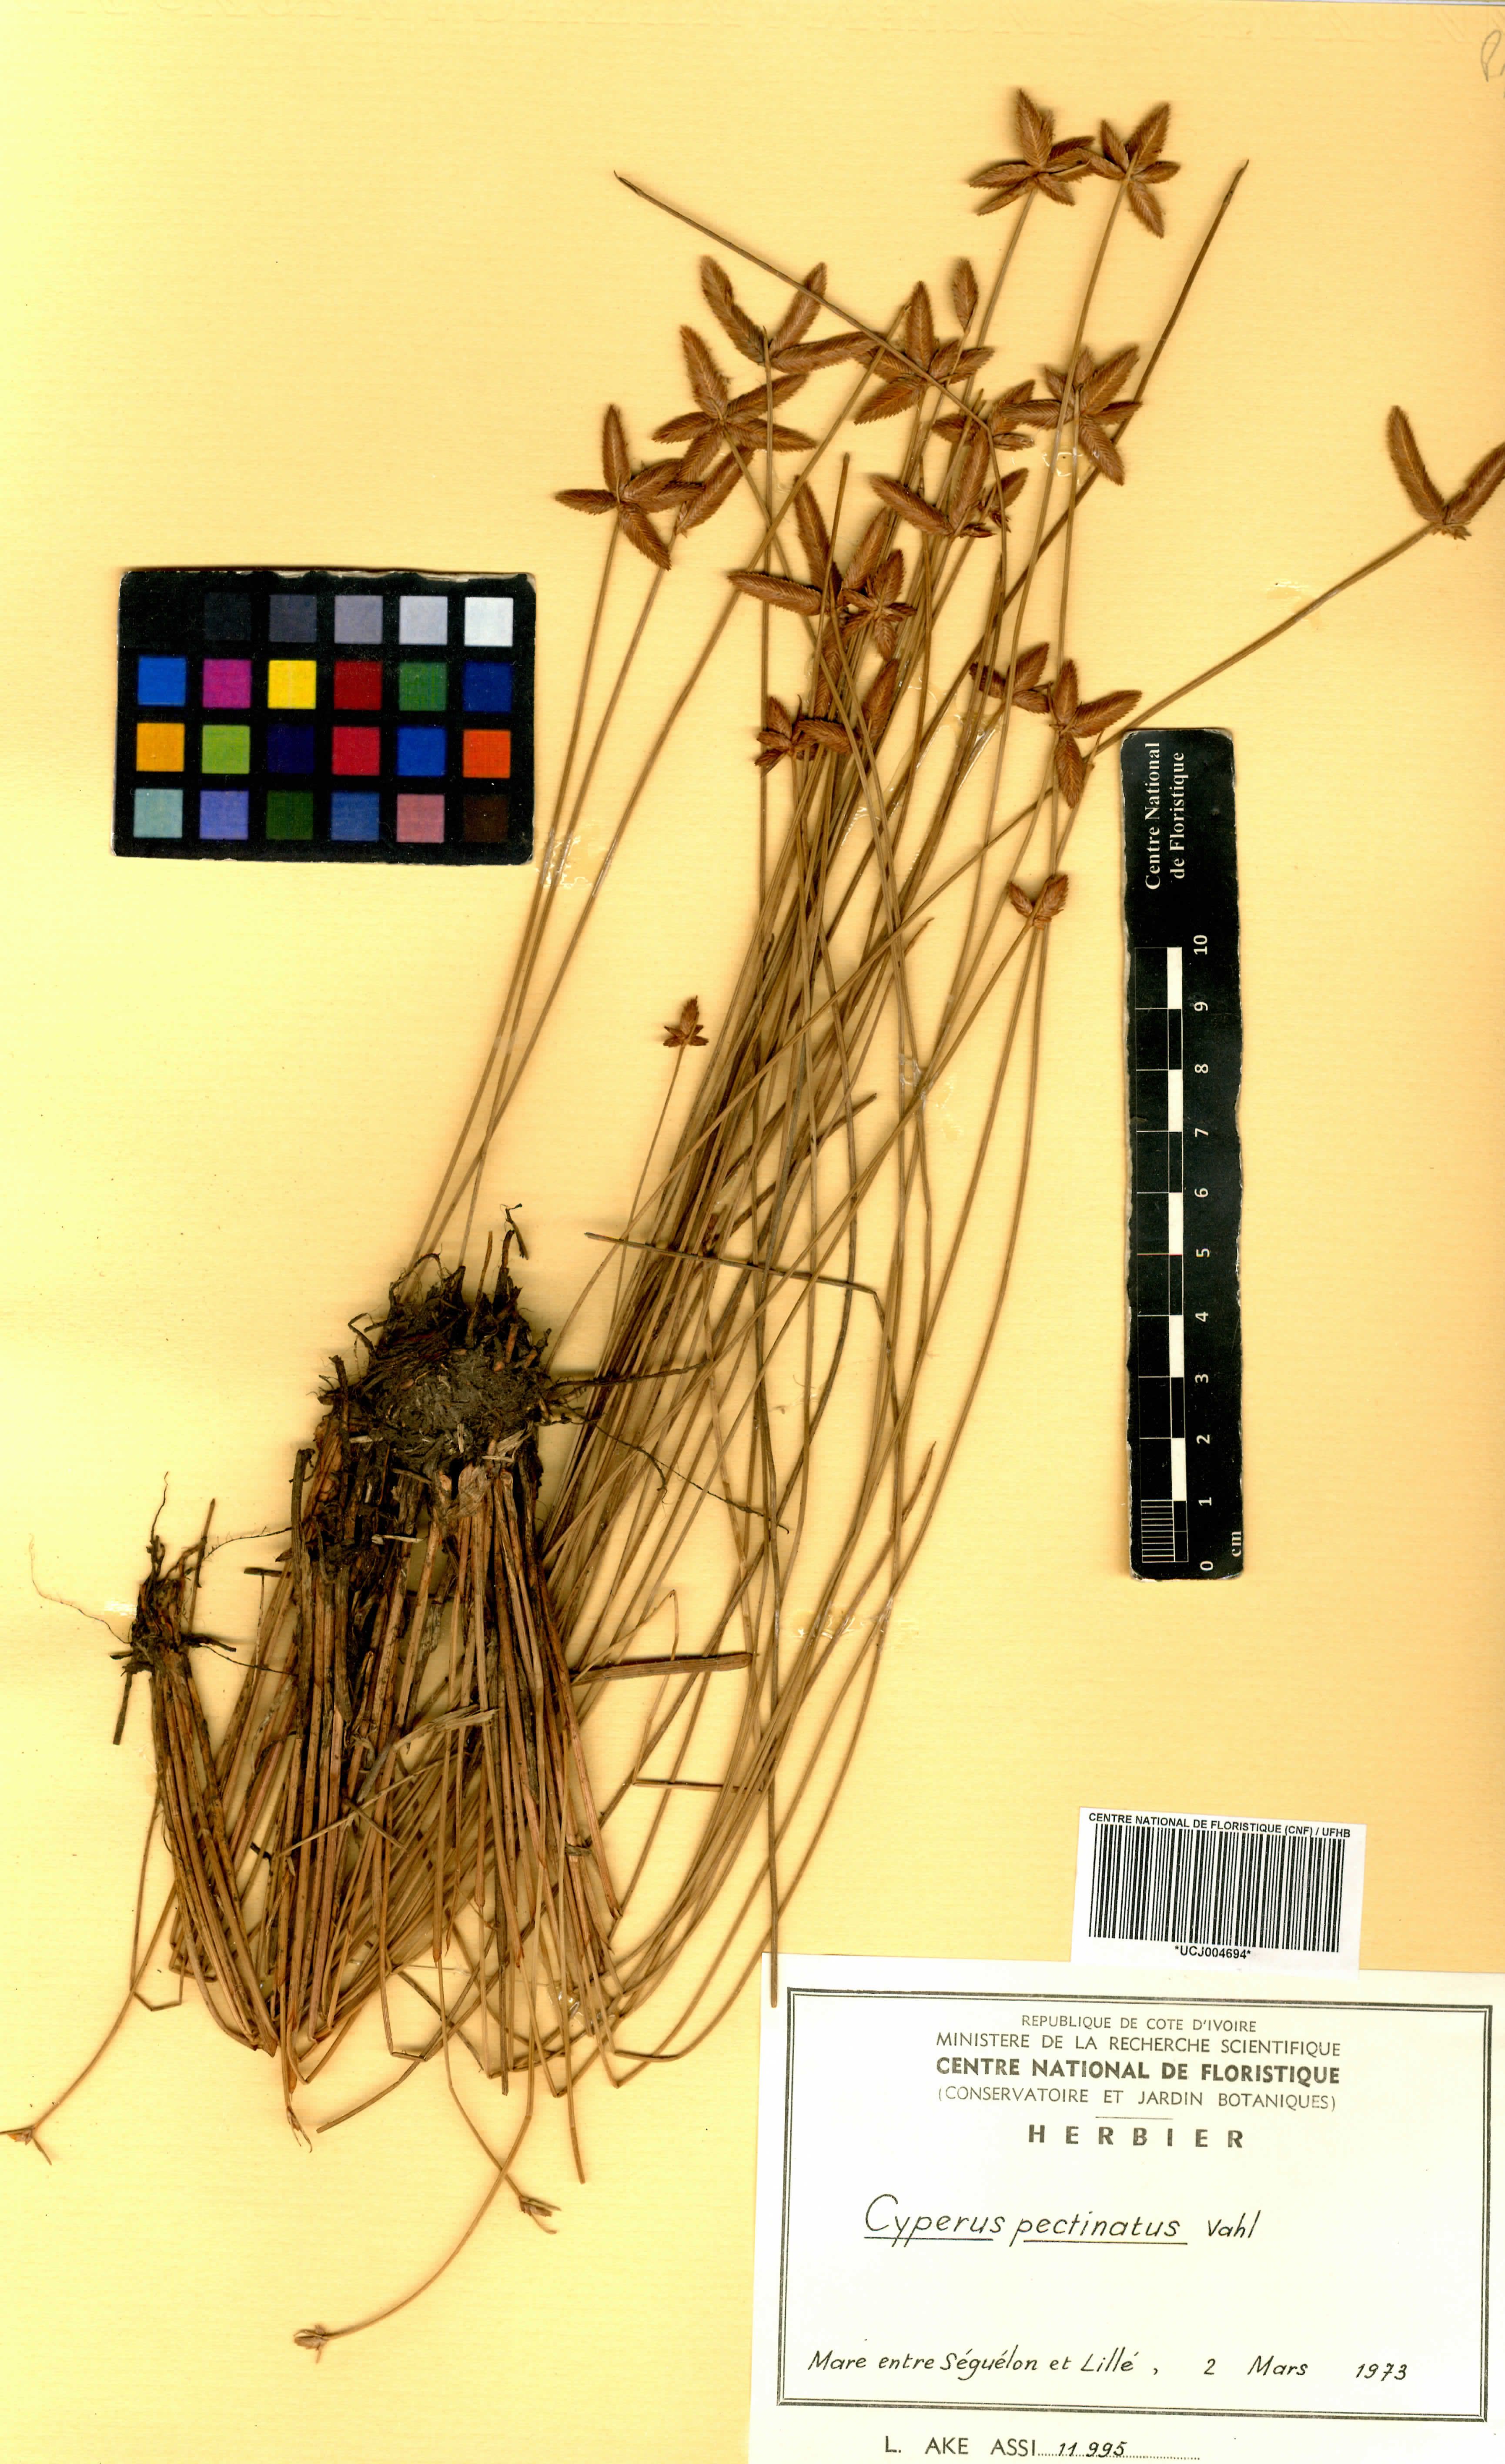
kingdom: Plantae
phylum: Tracheophyta
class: Liliopsida
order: Poales
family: Cyperaceae
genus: Cyperus
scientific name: Cyperus pectinatus
